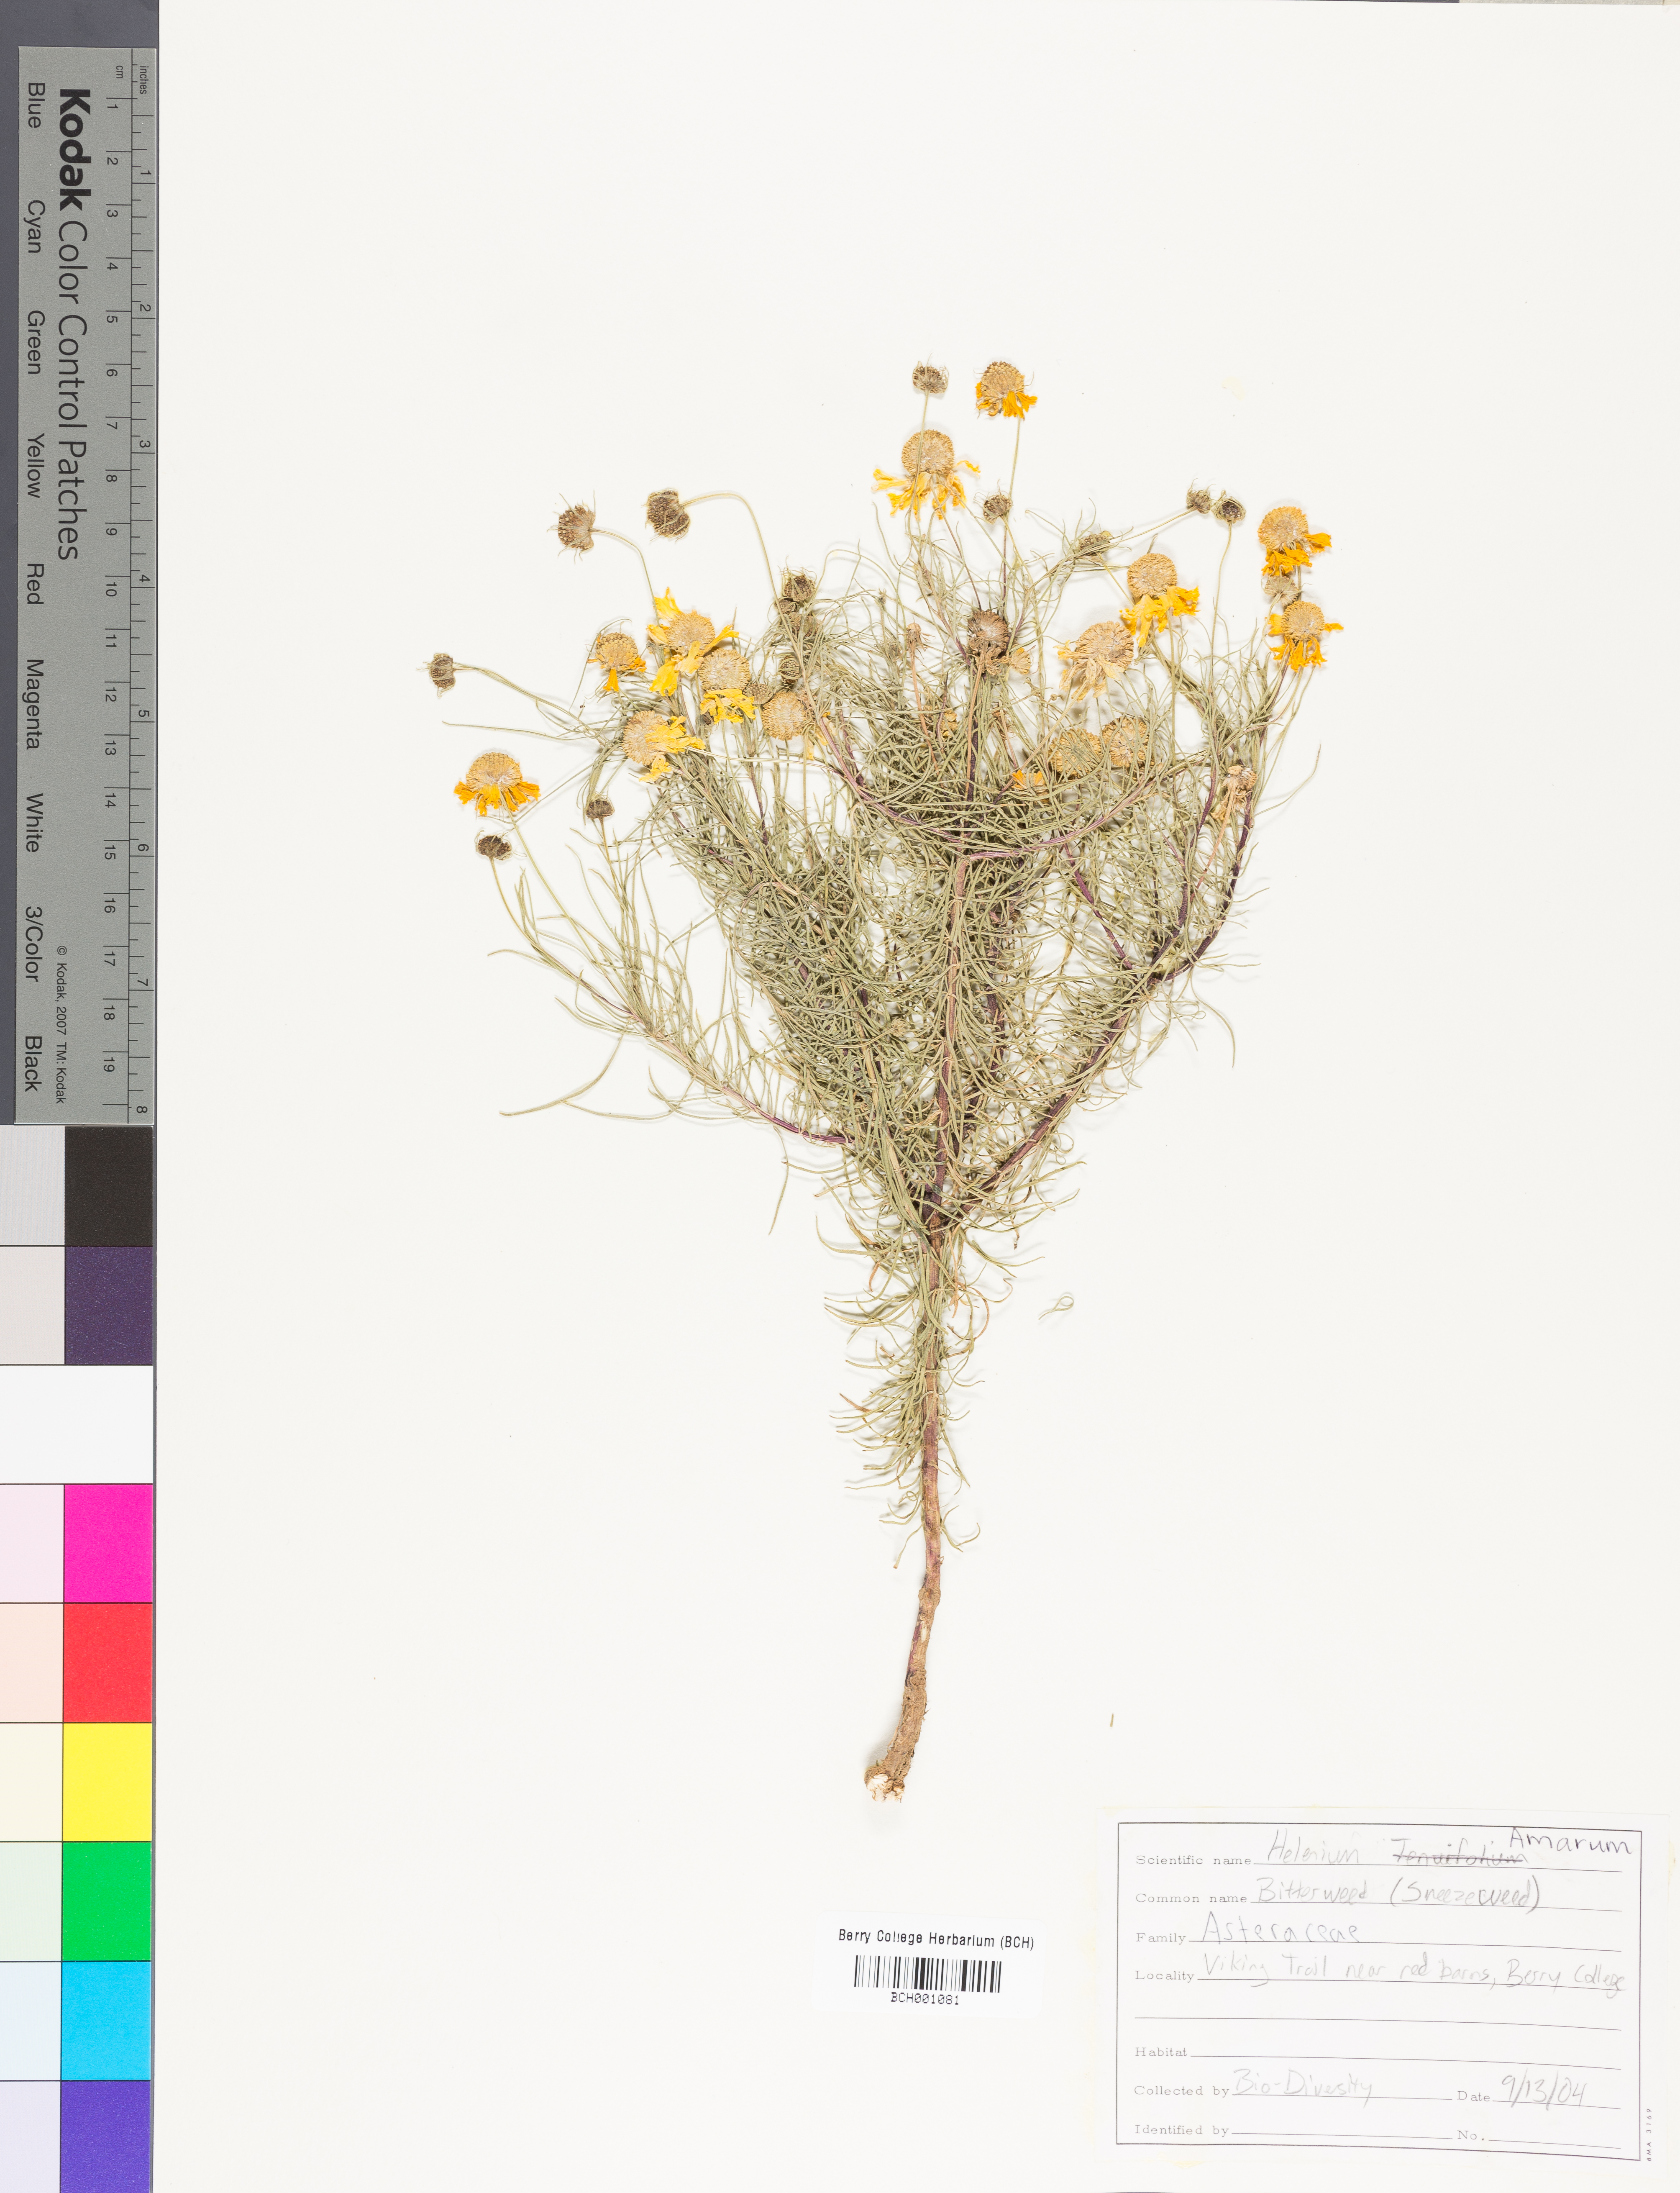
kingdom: Plantae
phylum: Tracheophyta
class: Magnoliopsida
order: Asterales
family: Asteraceae
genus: Helenium
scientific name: Helenium amarum
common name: Bitter sneezeweed
